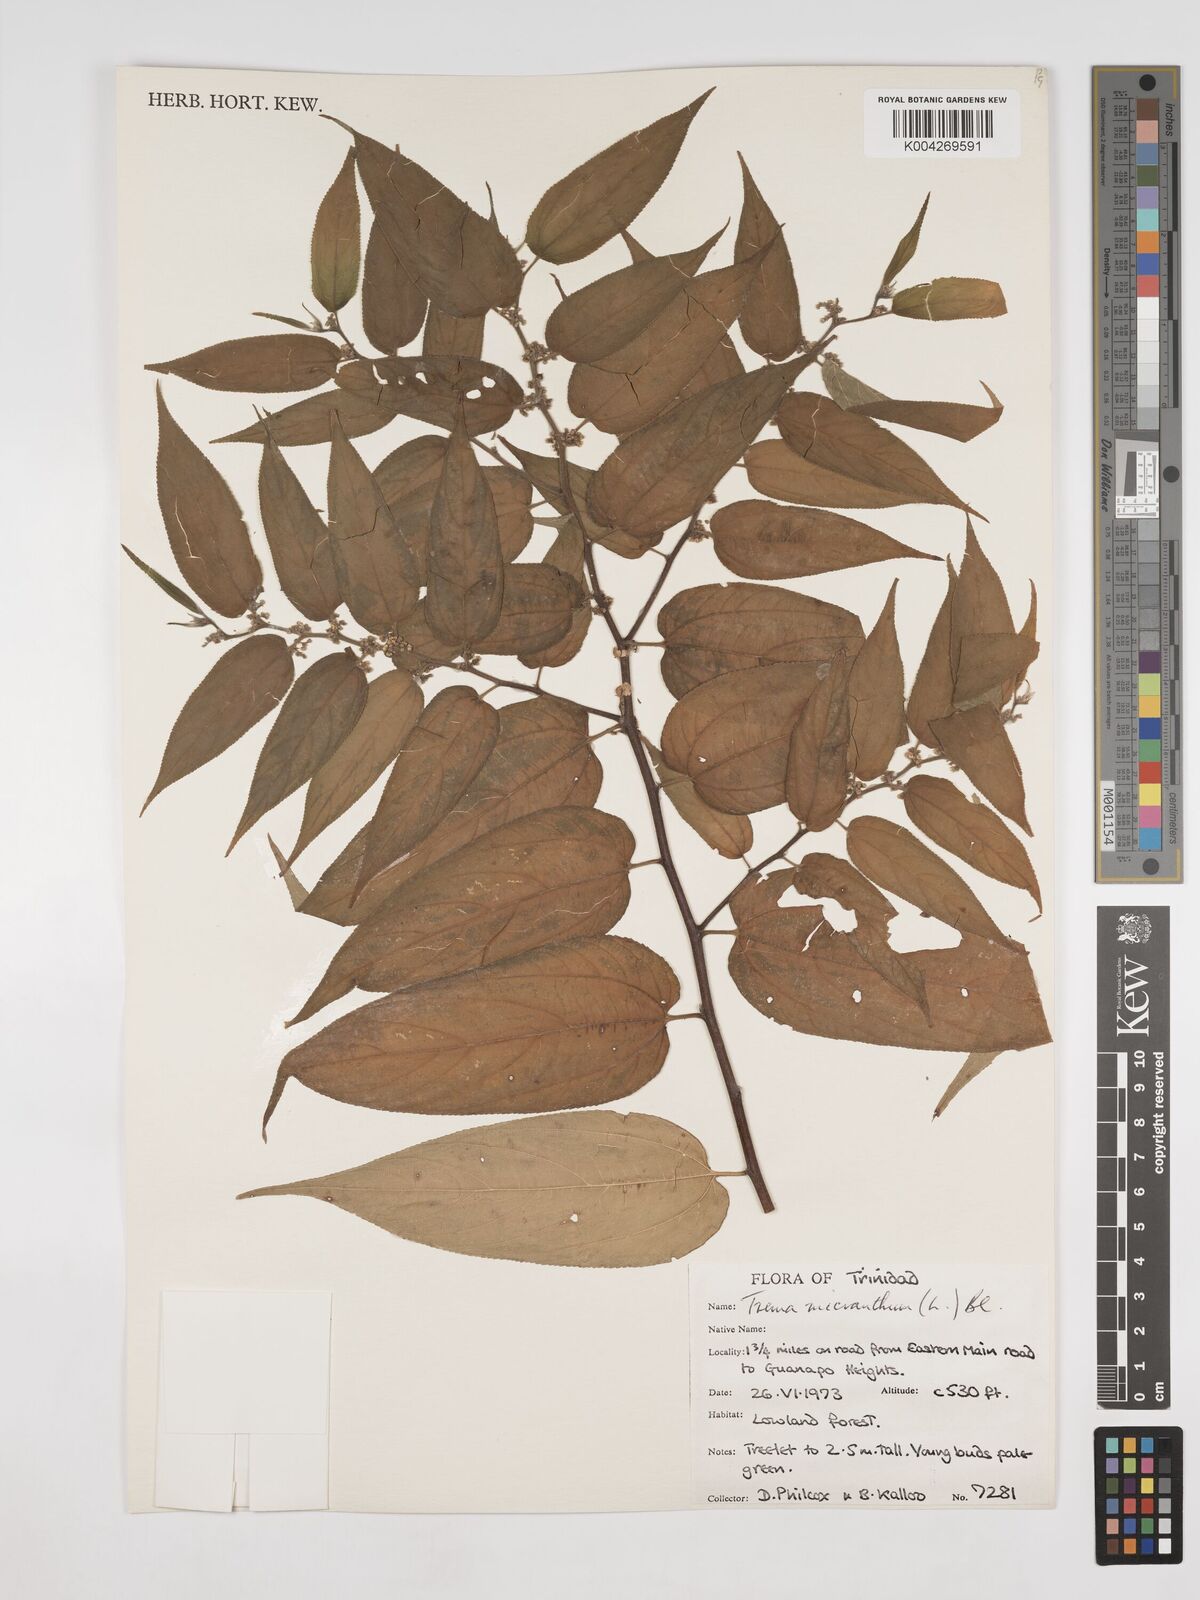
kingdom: Plantae
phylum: Tracheophyta
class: Magnoliopsida
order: Rosales
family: Cannabaceae
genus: Trema
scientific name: Trema micranthum
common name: Jamaican nettletree
